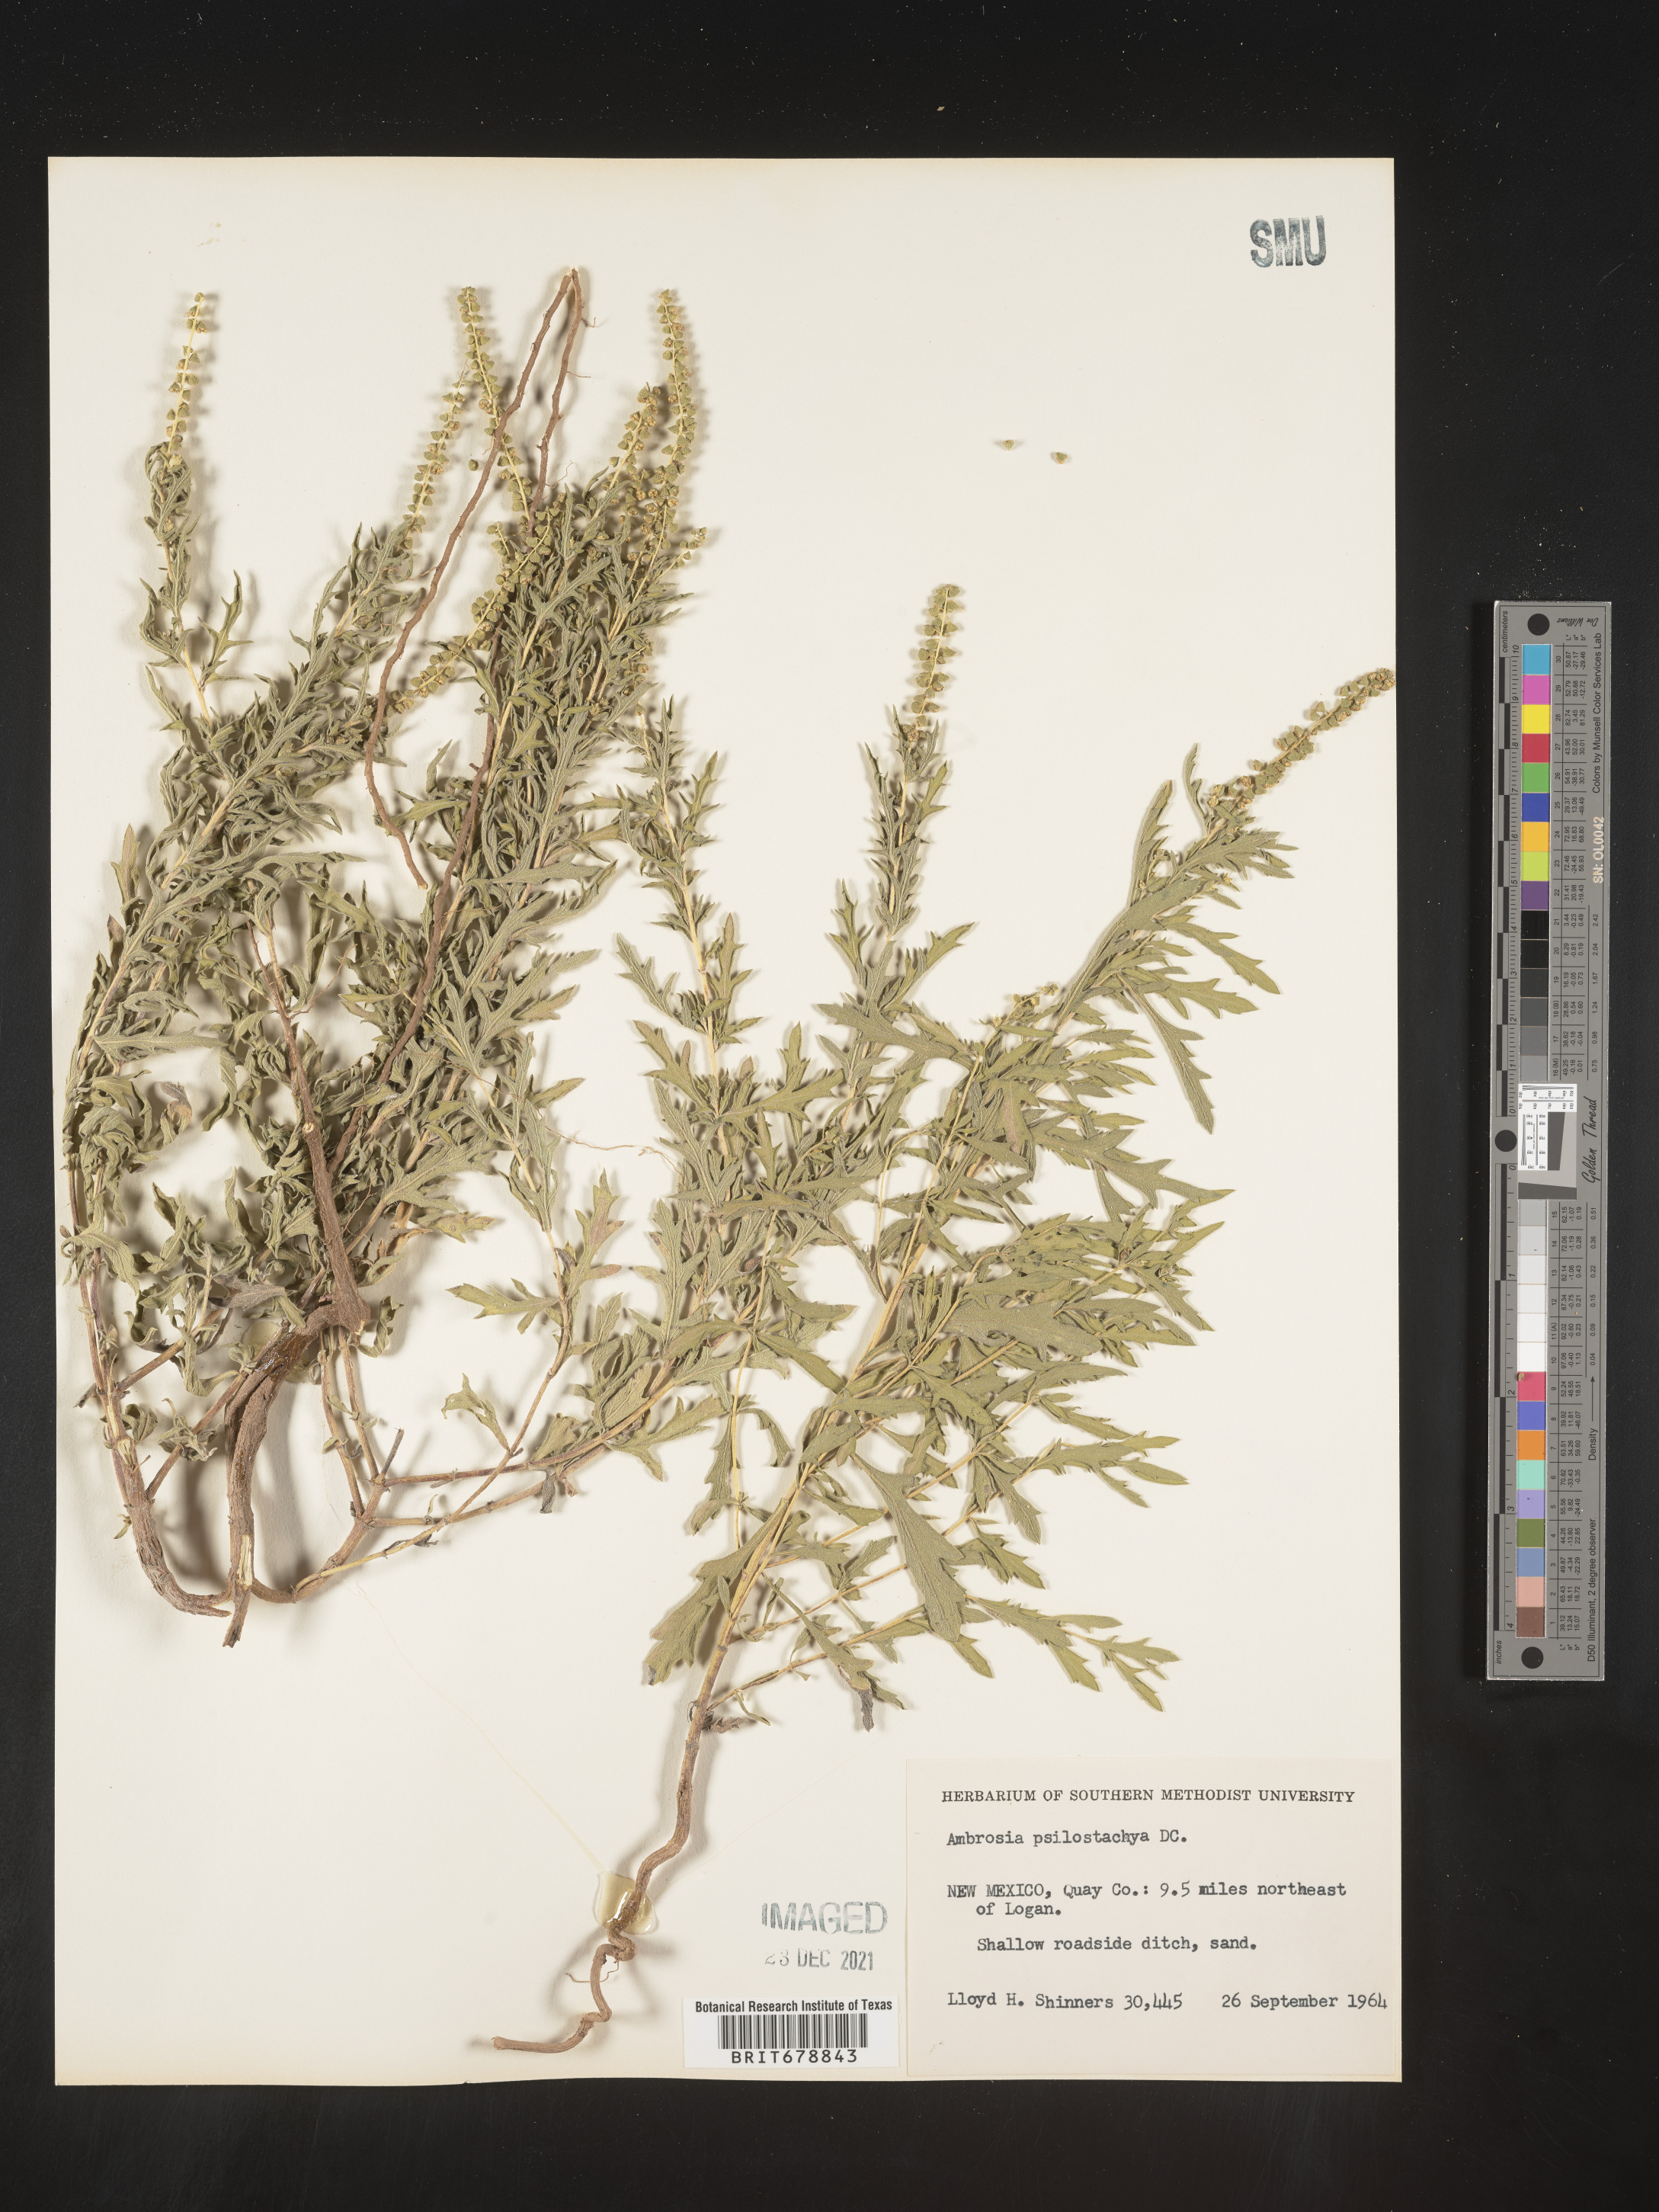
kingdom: Plantae
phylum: Tracheophyta
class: Magnoliopsida
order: Asterales
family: Asteraceae
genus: Ambrosia
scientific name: Ambrosia psilostachya
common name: Perennial ragweed
